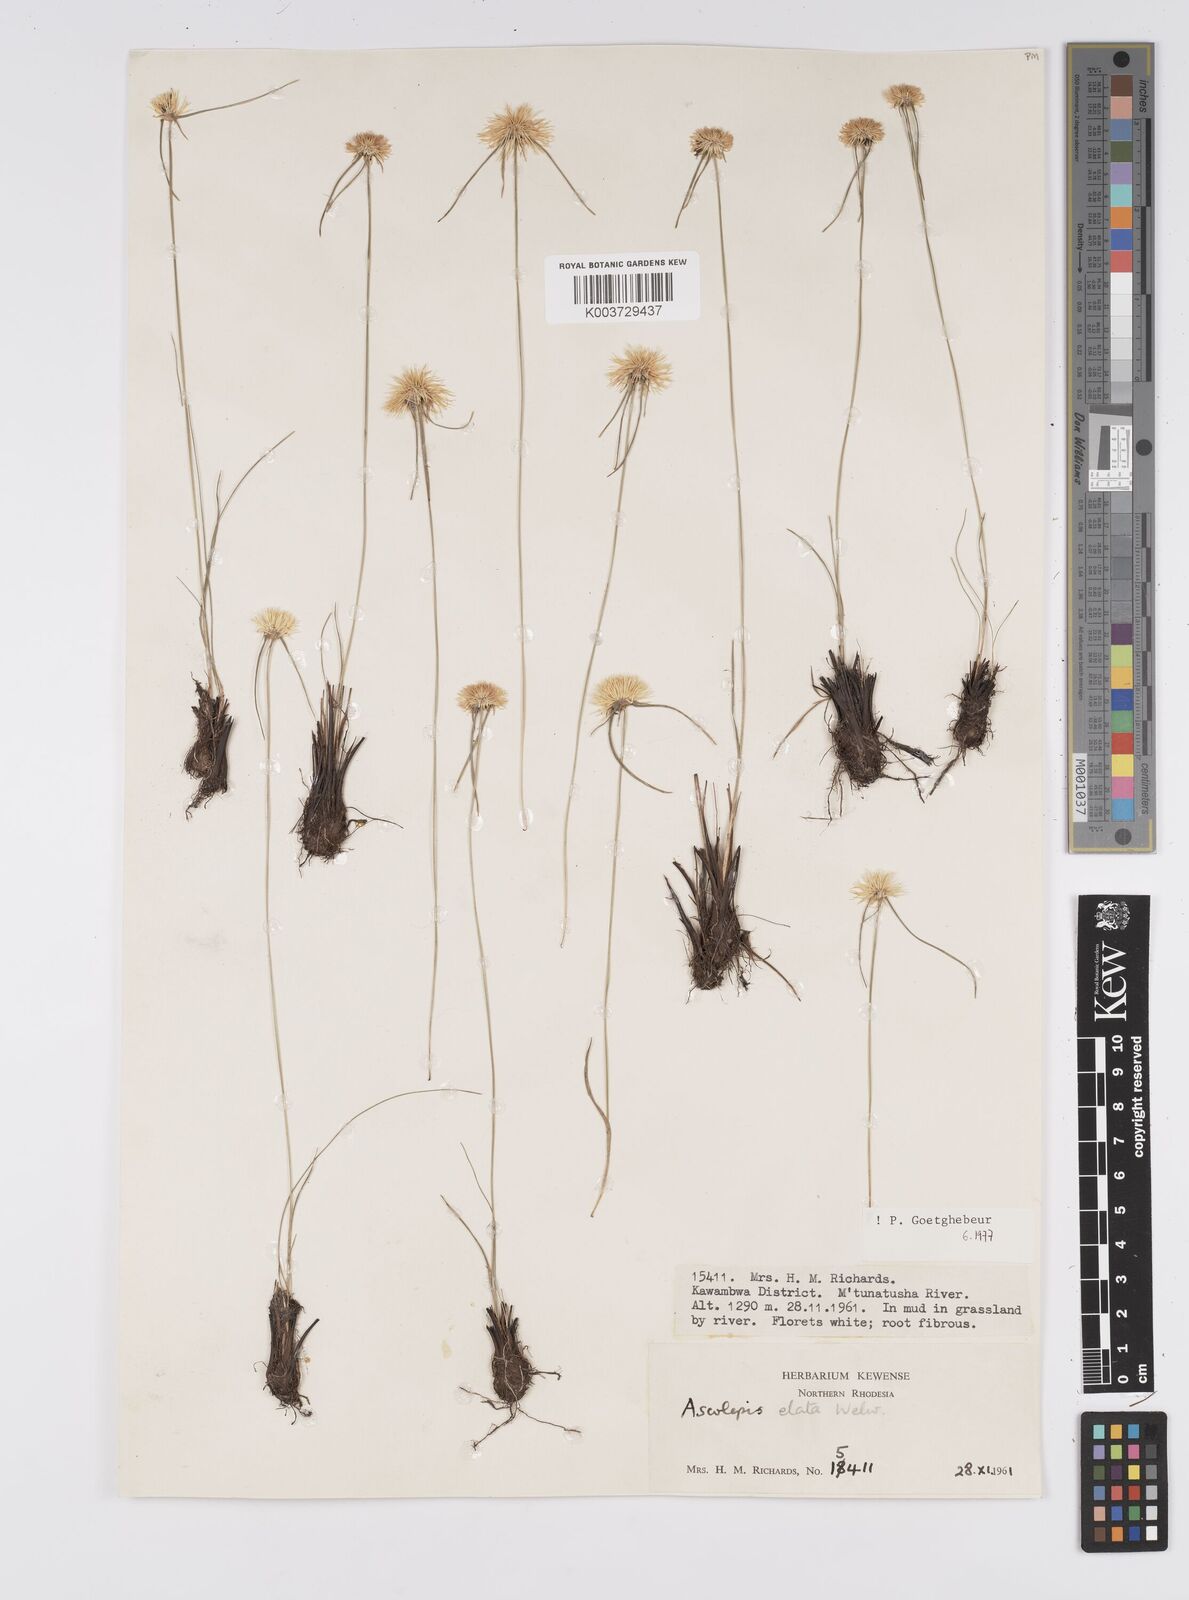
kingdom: Plantae
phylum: Tracheophyta
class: Liliopsida
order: Poales
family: Cyperaceae
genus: Cyperus
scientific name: Cyperus
